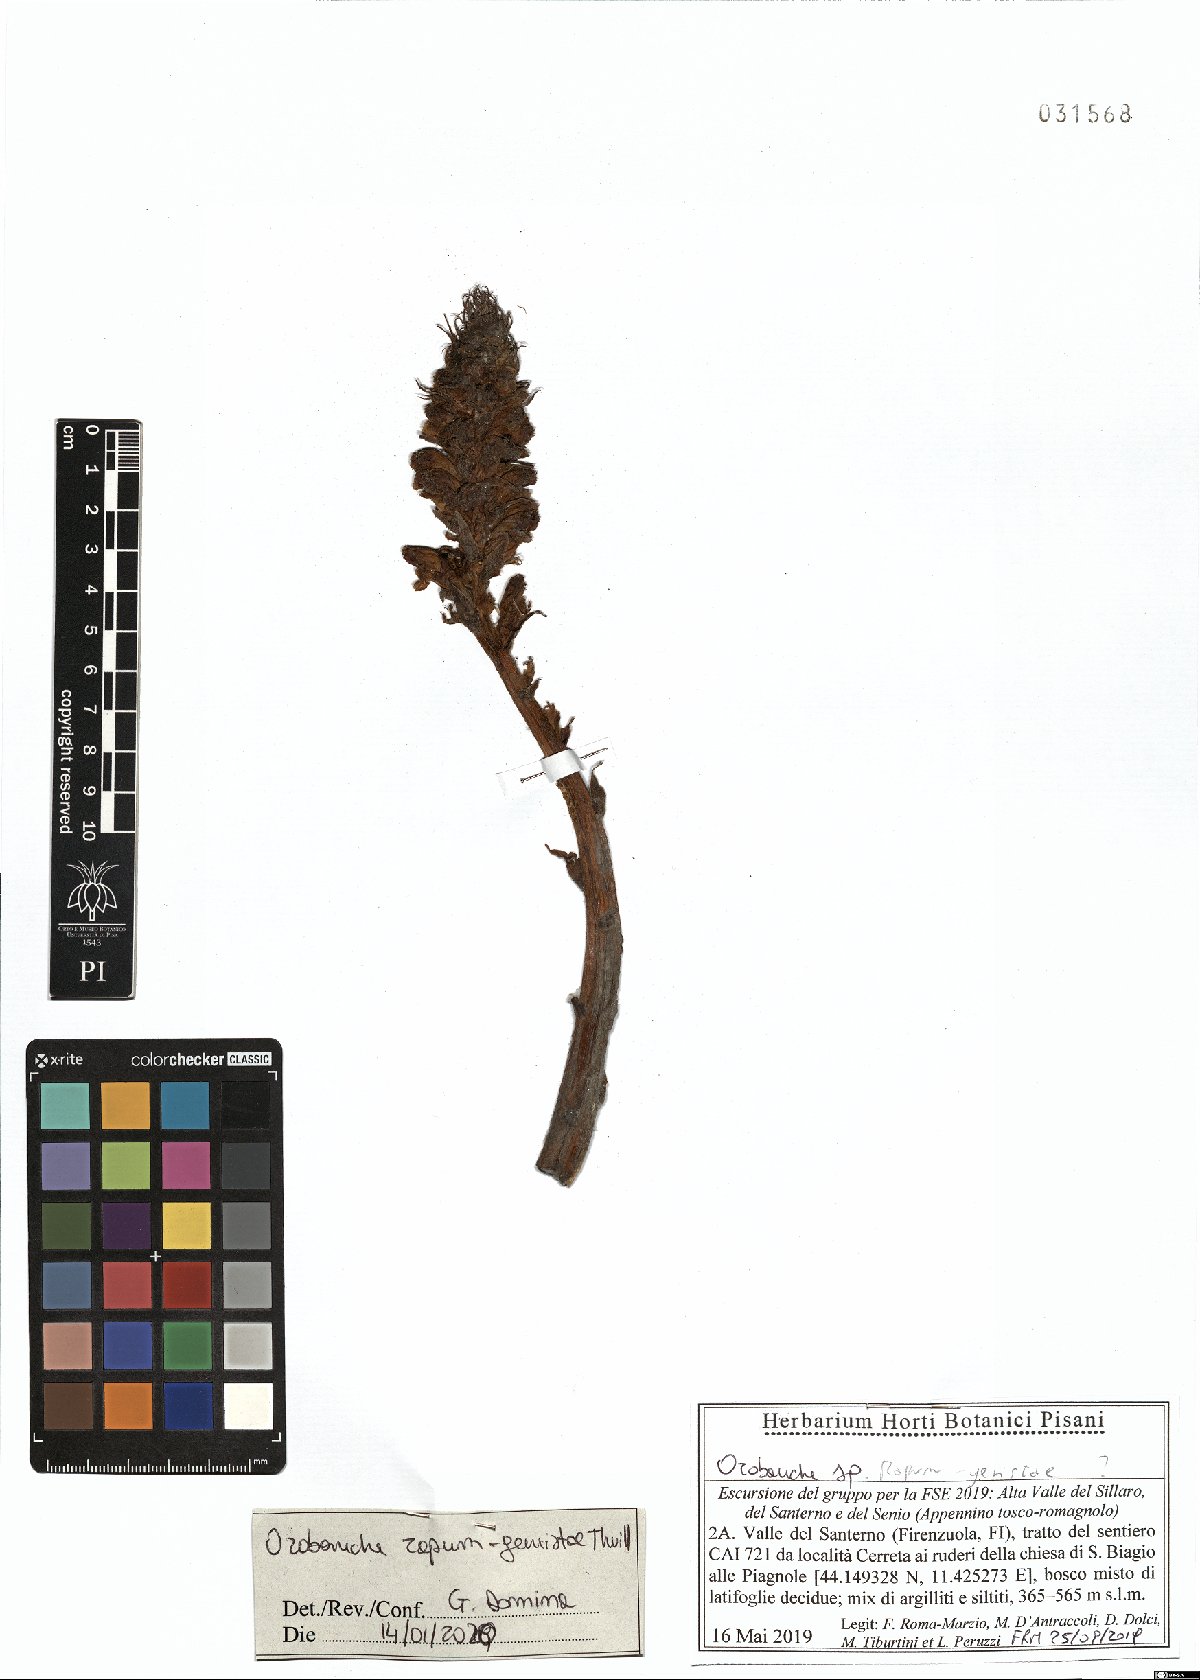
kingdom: Plantae
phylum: Tracheophyta
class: Magnoliopsida
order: Lamiales
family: Orobanchaceae
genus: Orobanche
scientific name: Orobanche rapum-genistae
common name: Greater broomrape
